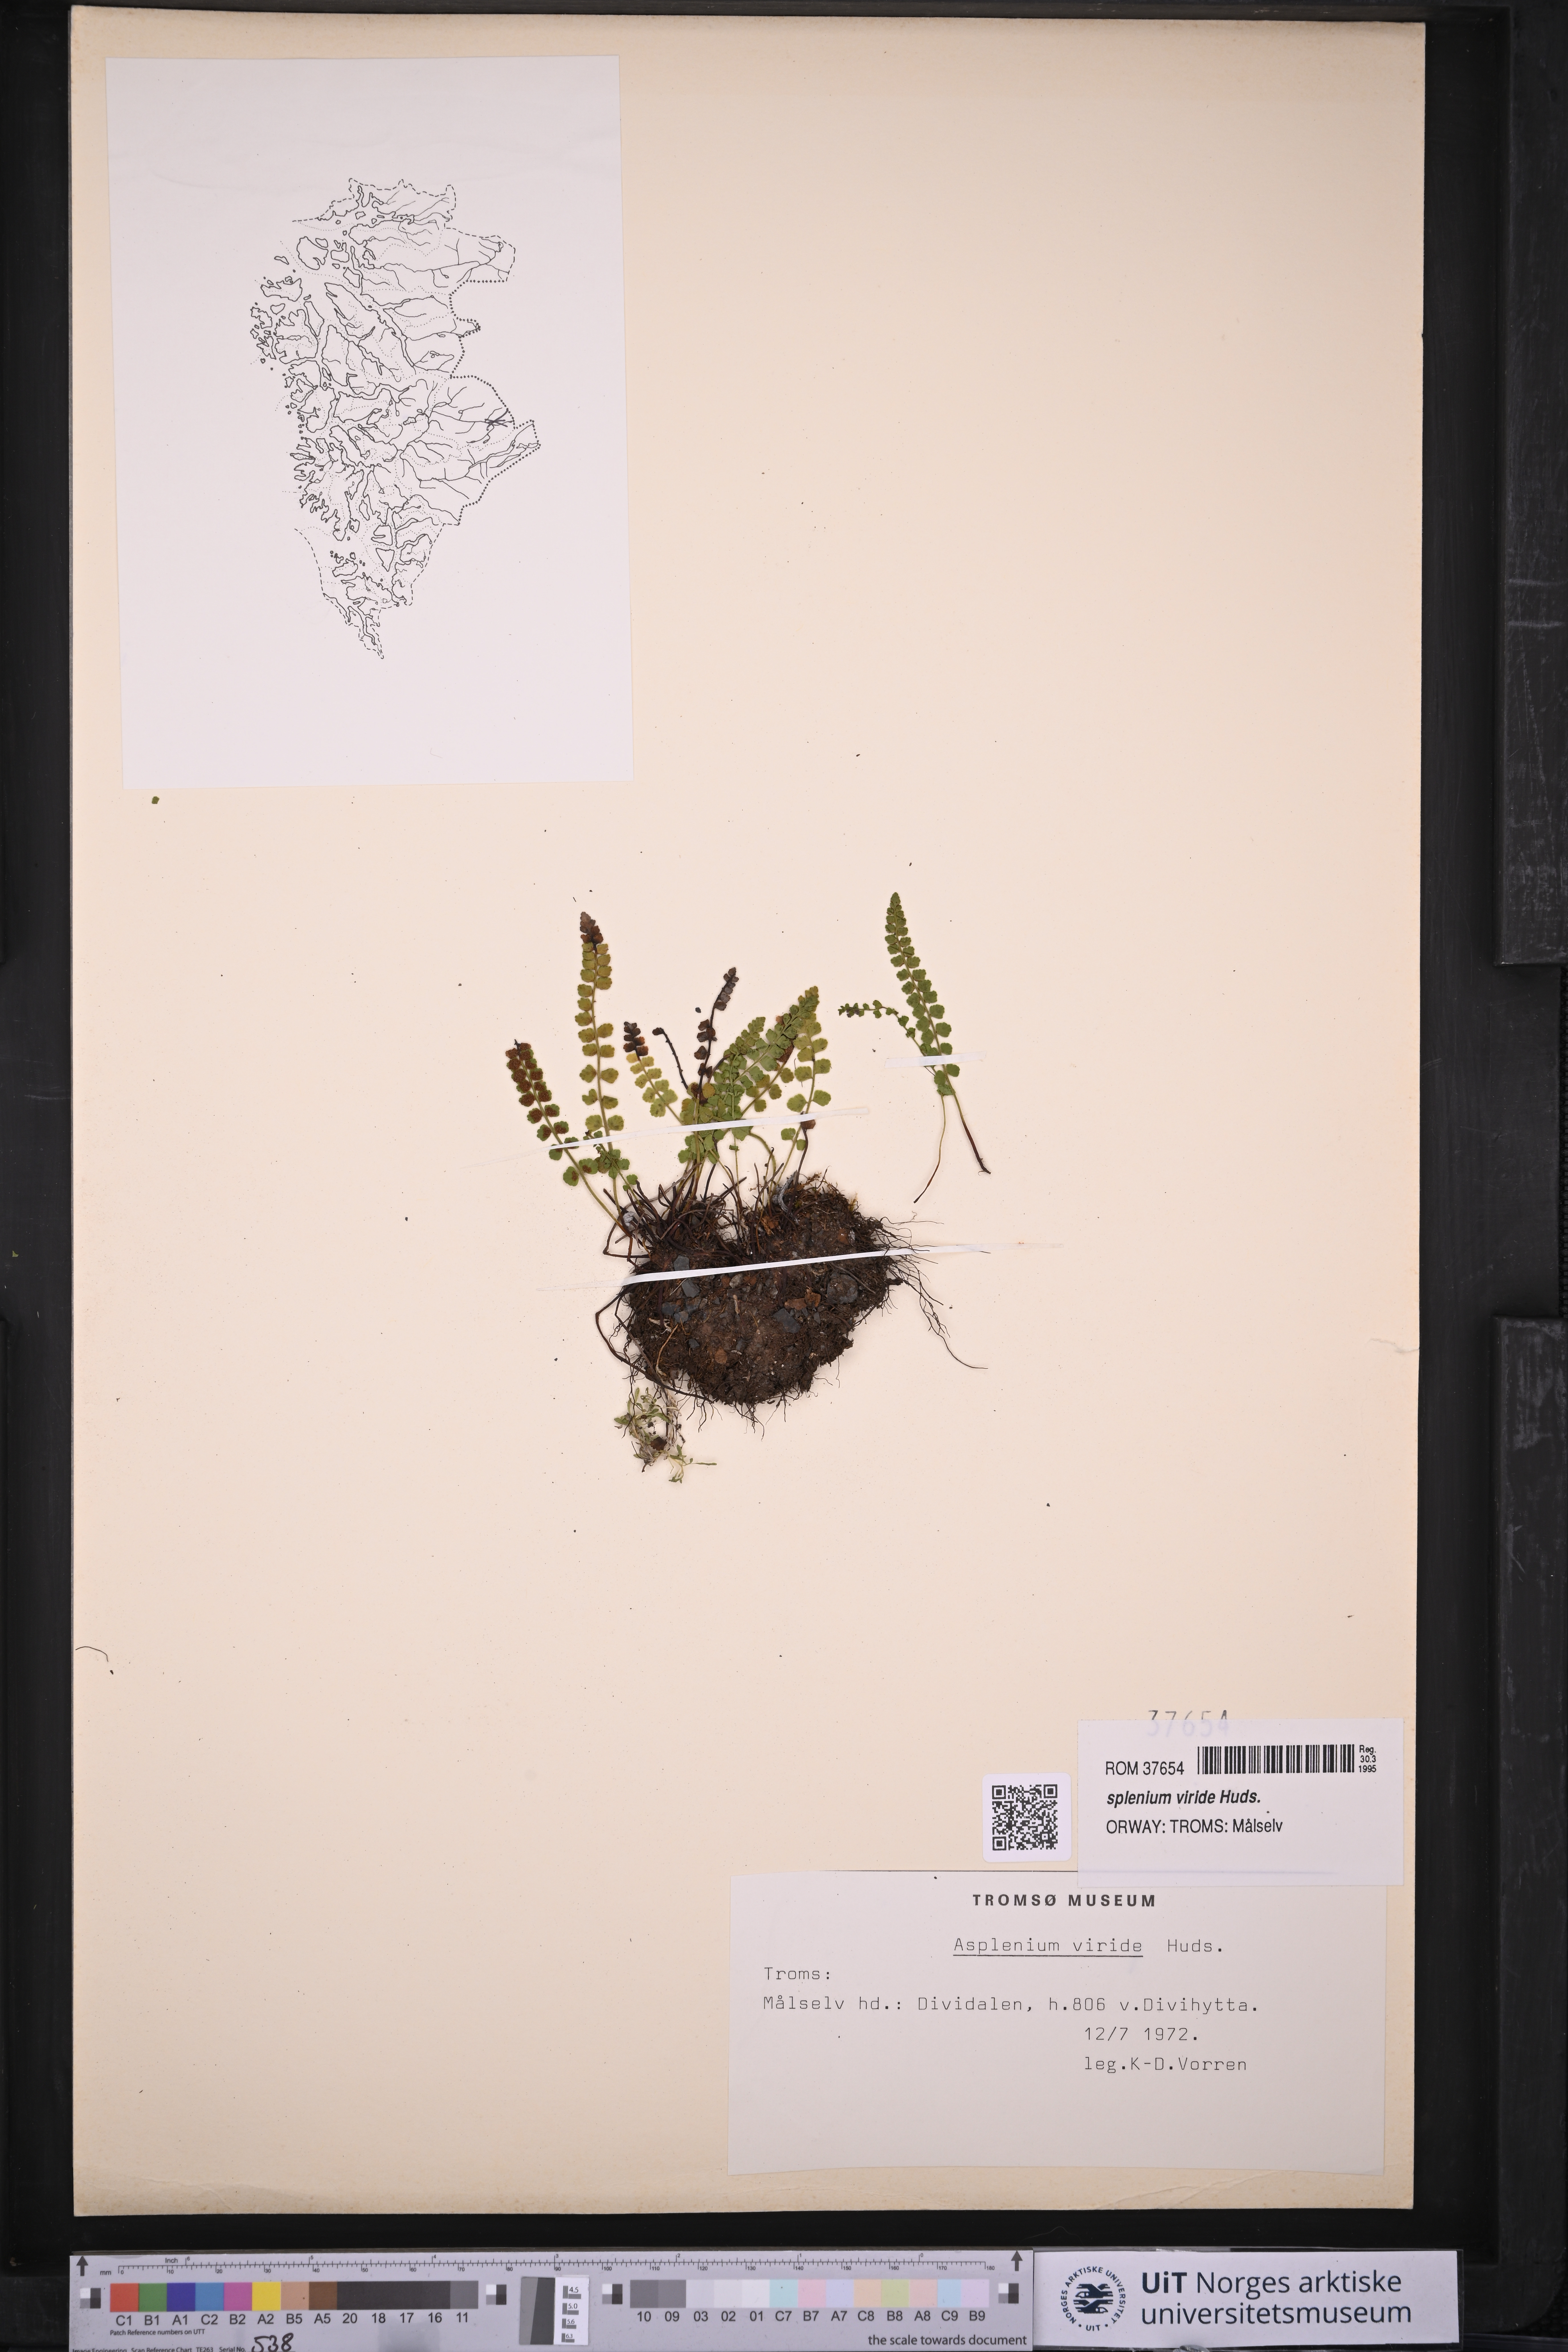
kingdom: Plantae
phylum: Tracheophyta
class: Polypodiopsida
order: Polypodiales
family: Aspleniaceae
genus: Asplenium
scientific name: Asplenium viride
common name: Green spleenwort
